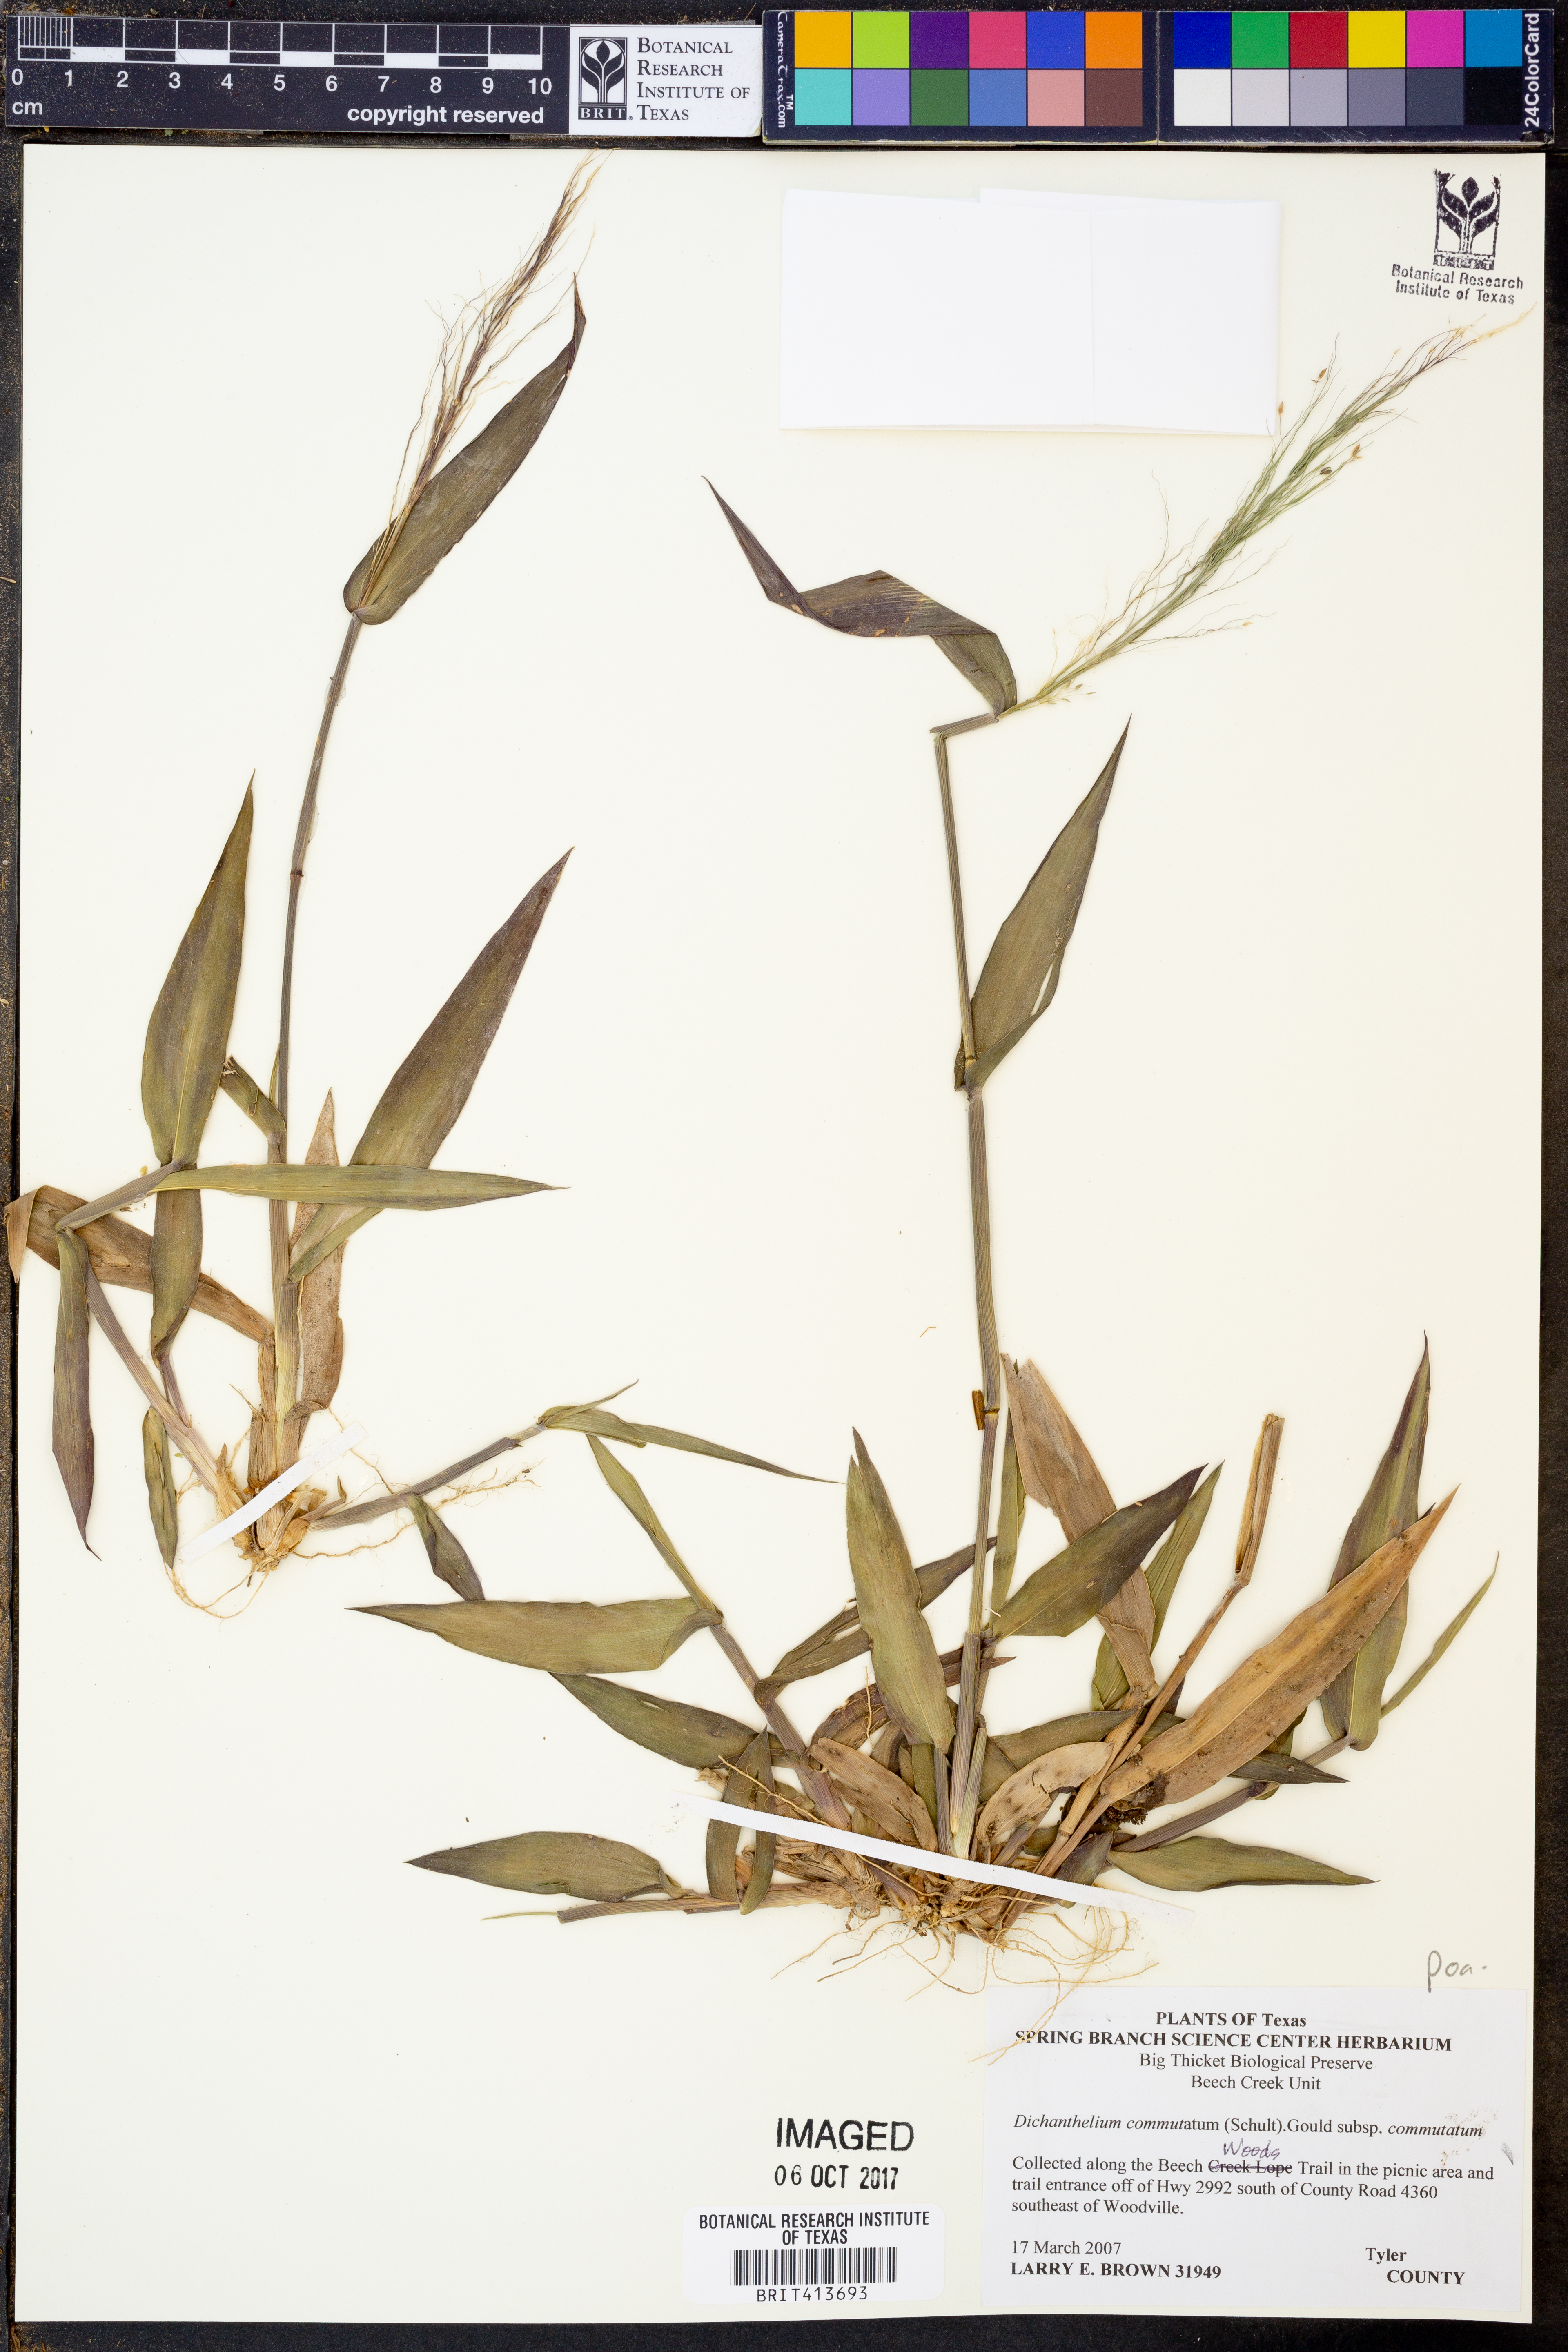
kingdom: Plantae
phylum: Tracheophyta
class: Liliopsida
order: Poales
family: Poaceae
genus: Dichanthelium
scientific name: Dichanthelium commutatum
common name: Variable witchgrass
